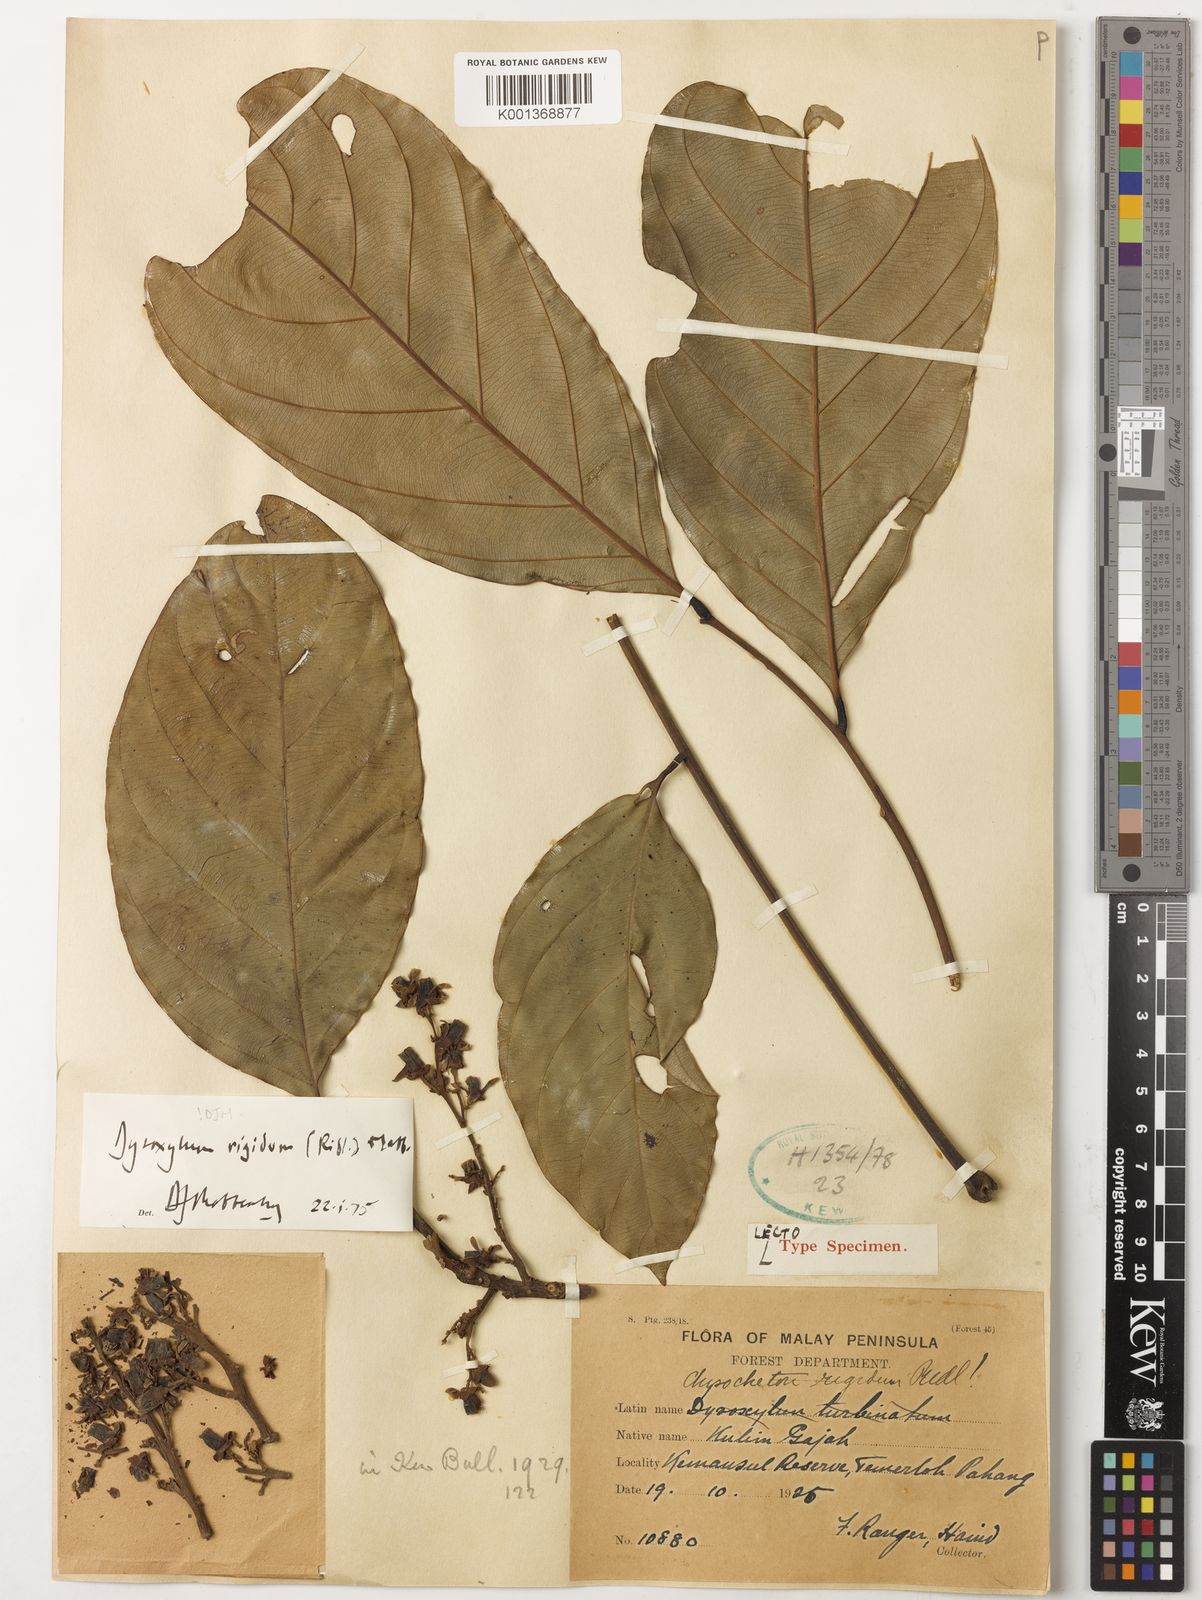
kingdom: Plantae
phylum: Tracheophyta
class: Magnoliopsida
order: Sapindales
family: Meliaceae
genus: Prasoxylon
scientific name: Prasoxylon rigidum
